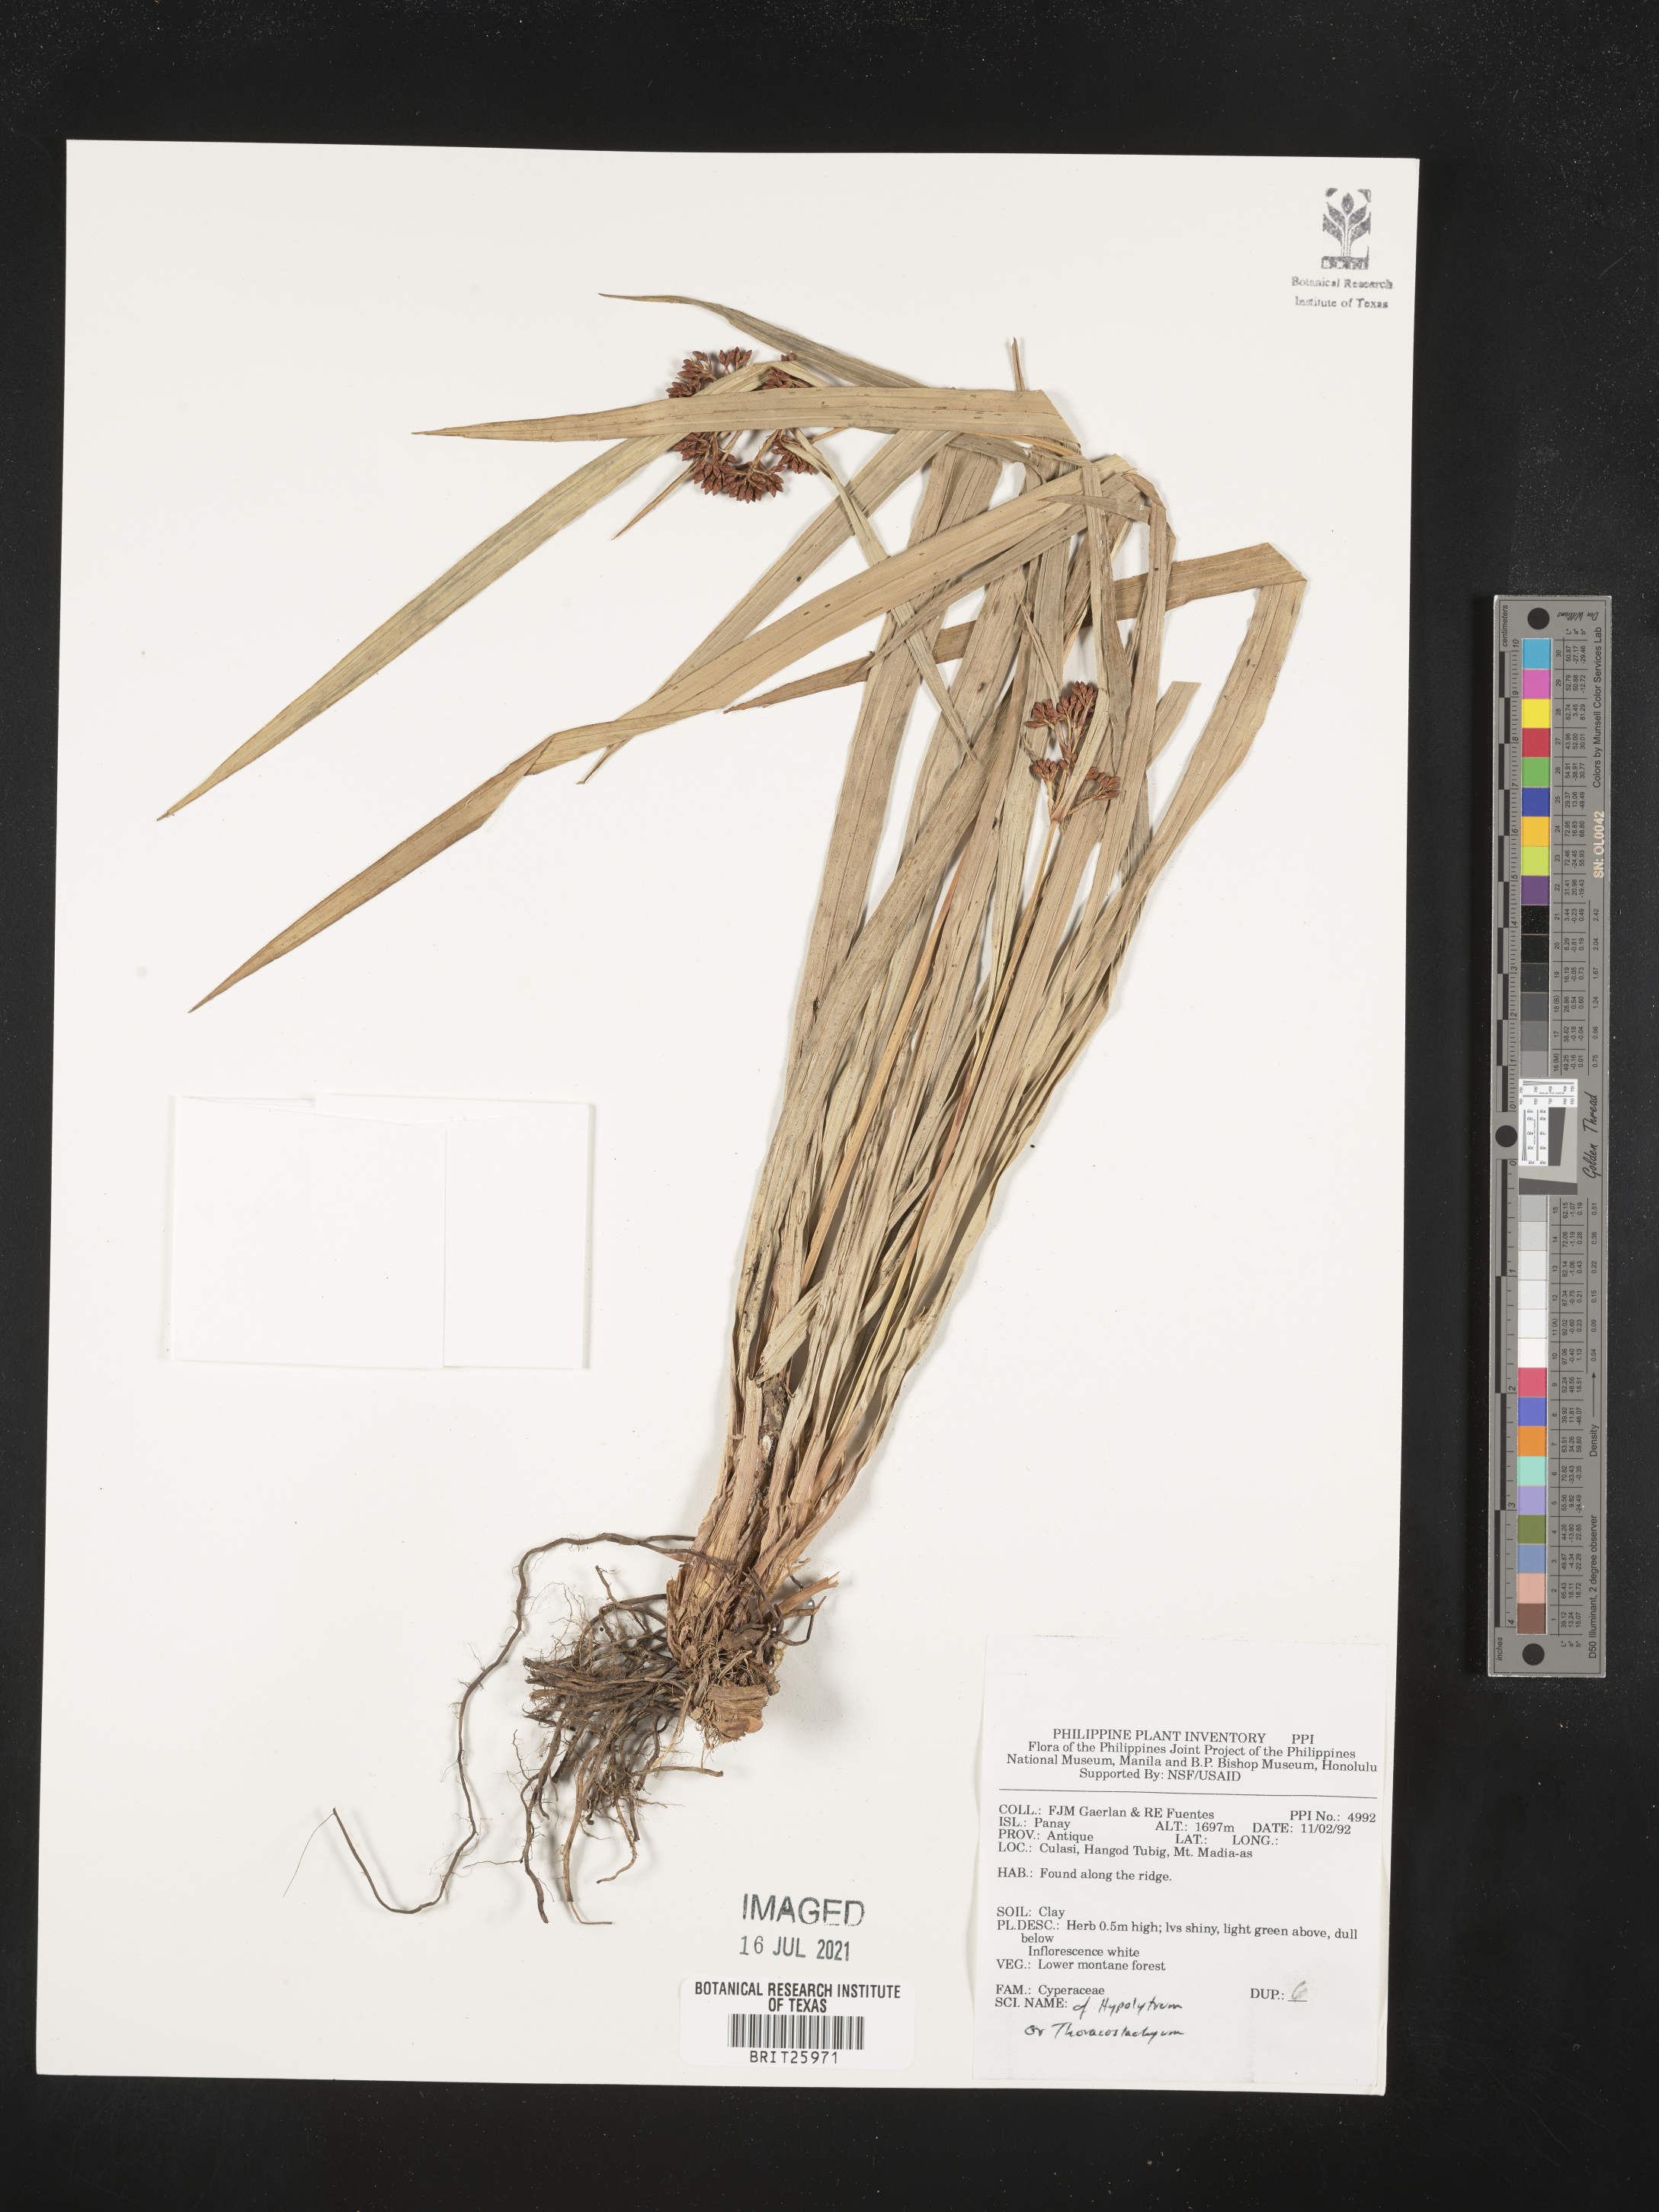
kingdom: Plantae
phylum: Tracheophyta
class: Liliopsida
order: Poales
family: Cyperaceae
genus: Hypolytrum
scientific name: Hypolytrum
